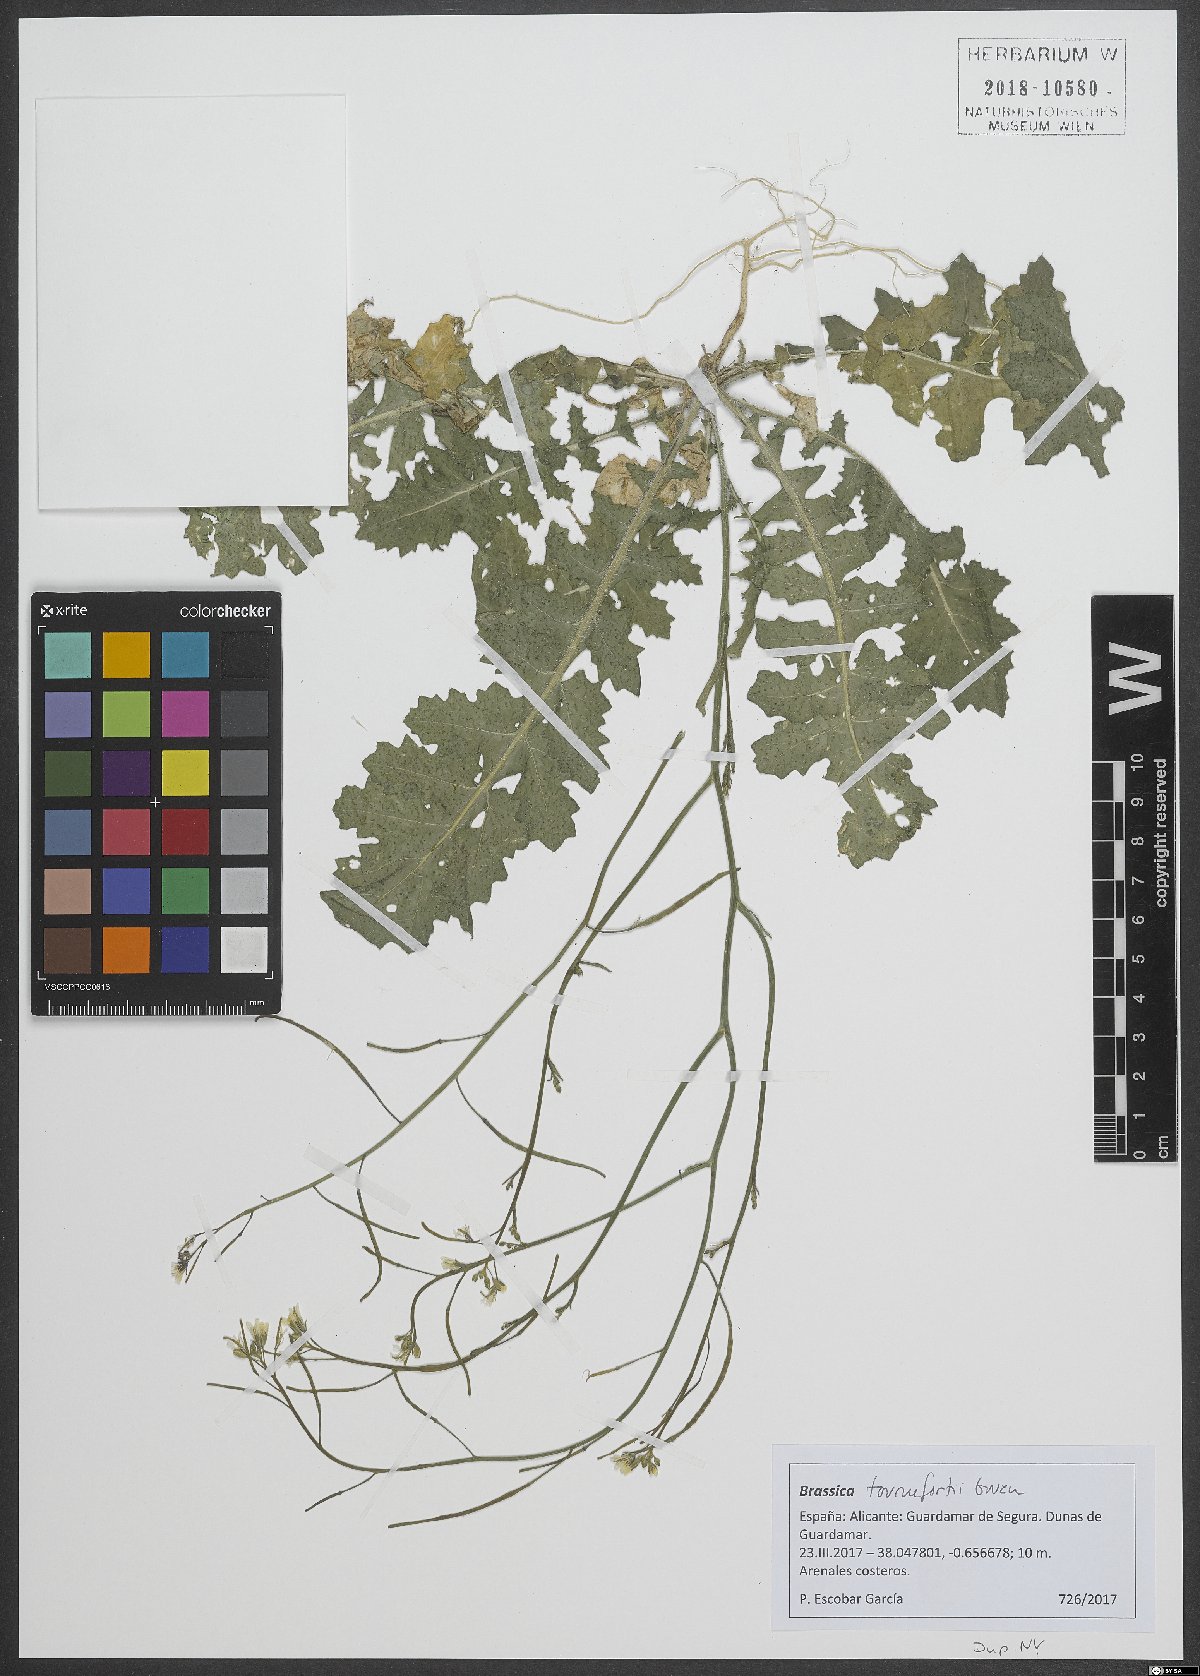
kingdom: Plantae
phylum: Tracheophyta
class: Magnoliopsida
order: Brassicales
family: Brassicaceae
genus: Brassica
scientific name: Brassica tournefortii
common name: Pale cabbage
